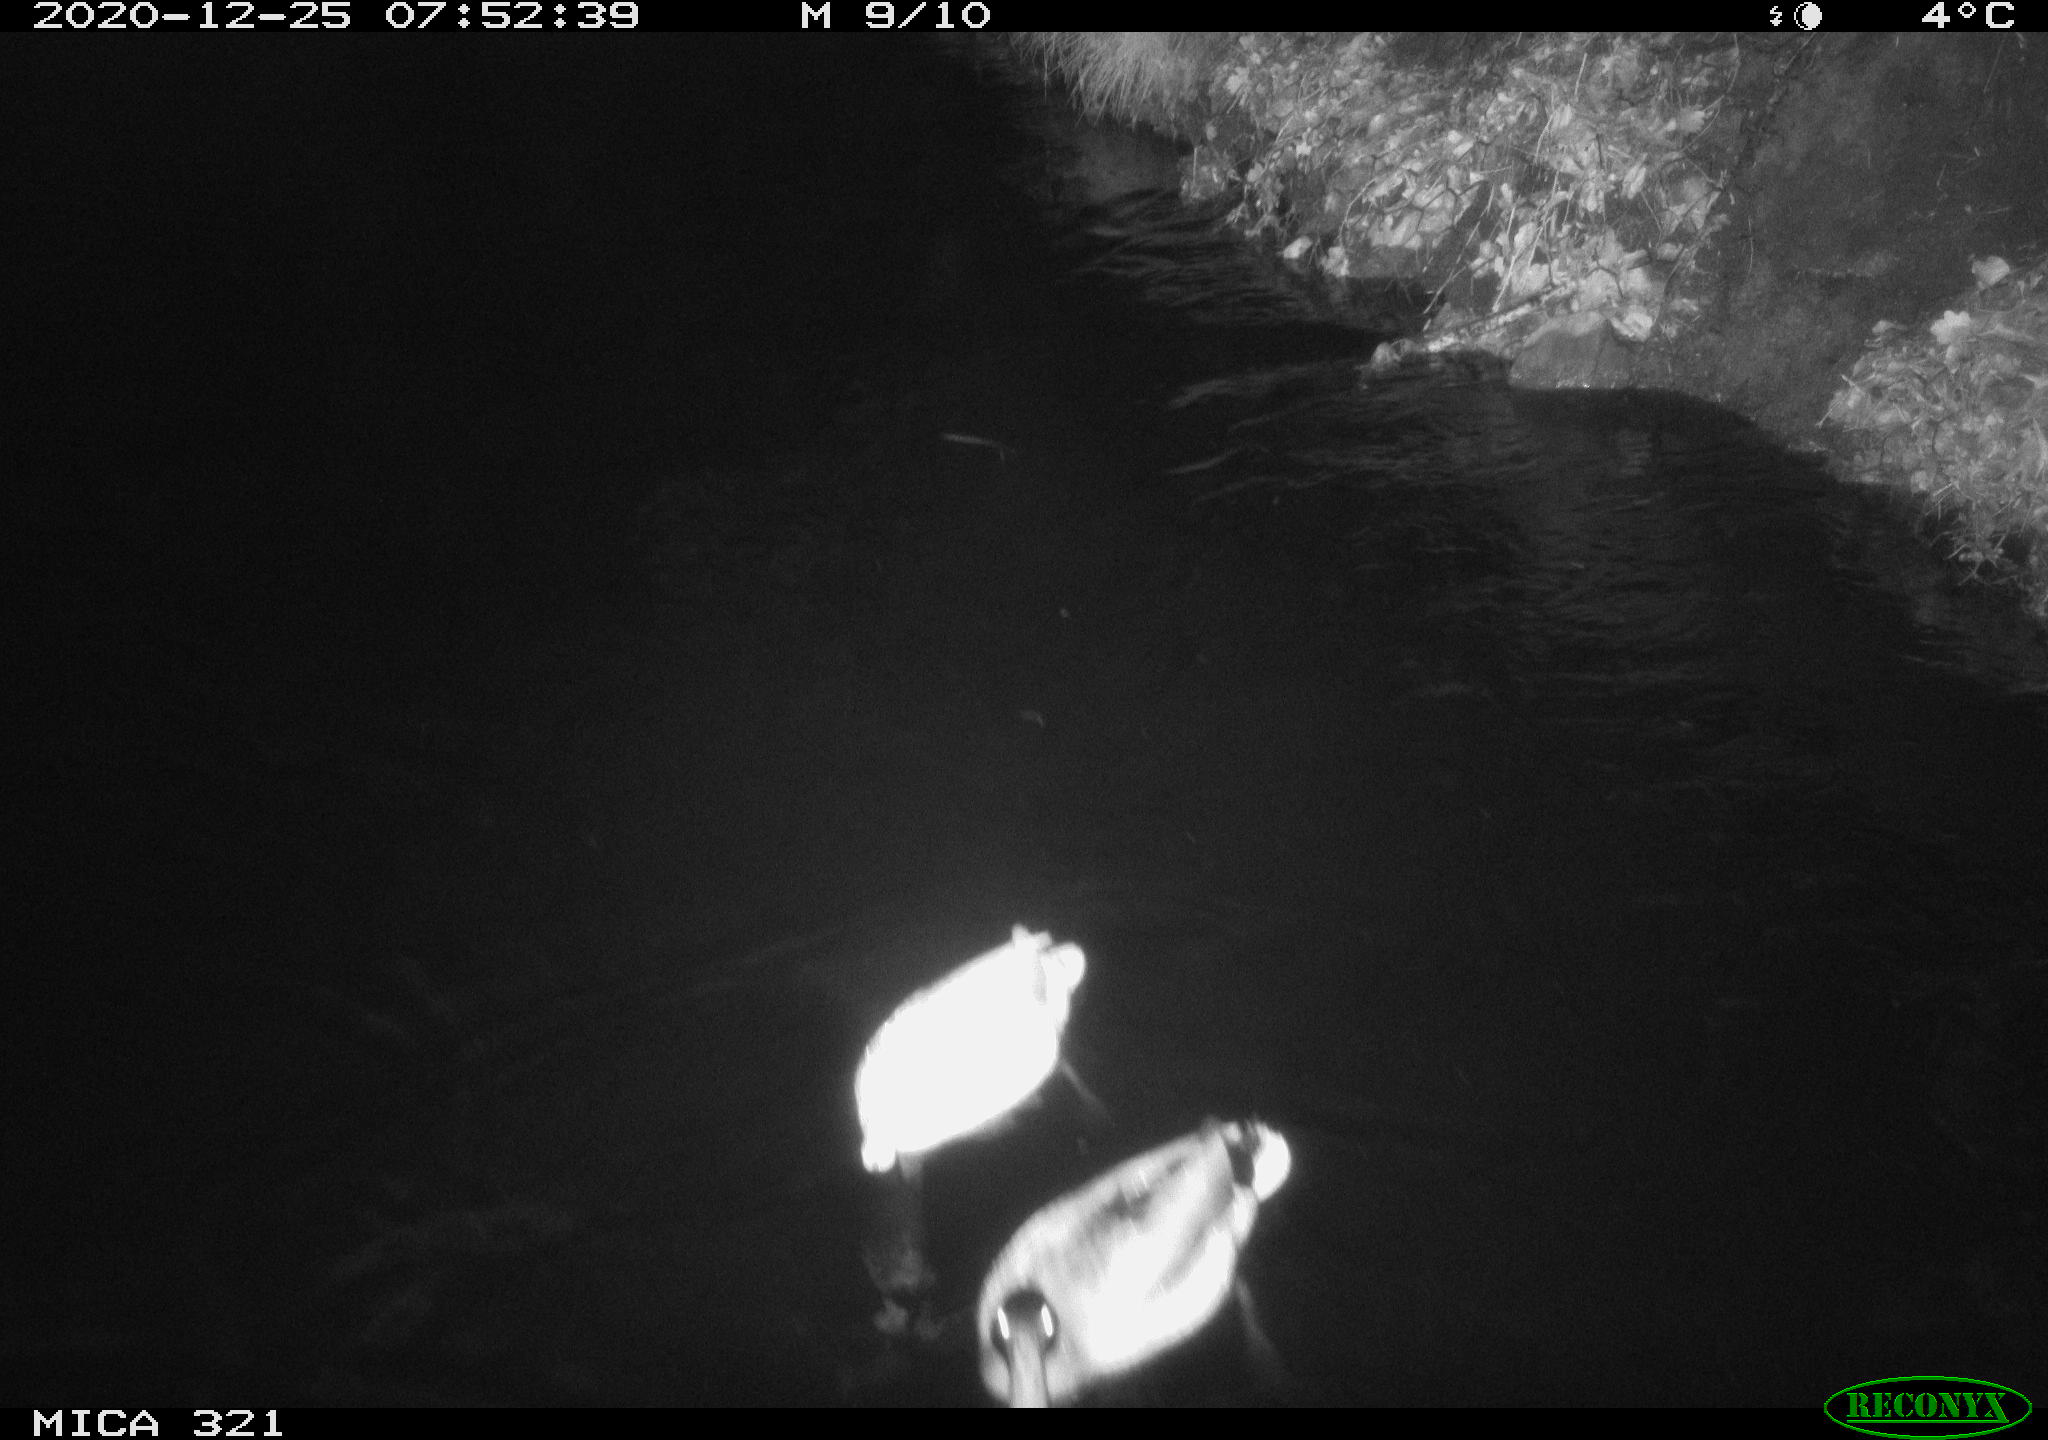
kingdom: Animalia
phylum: Chordata
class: Aves
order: Anseriformes
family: Anatidae
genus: Anas
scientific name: Anas platyrhynchos
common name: Mallard
